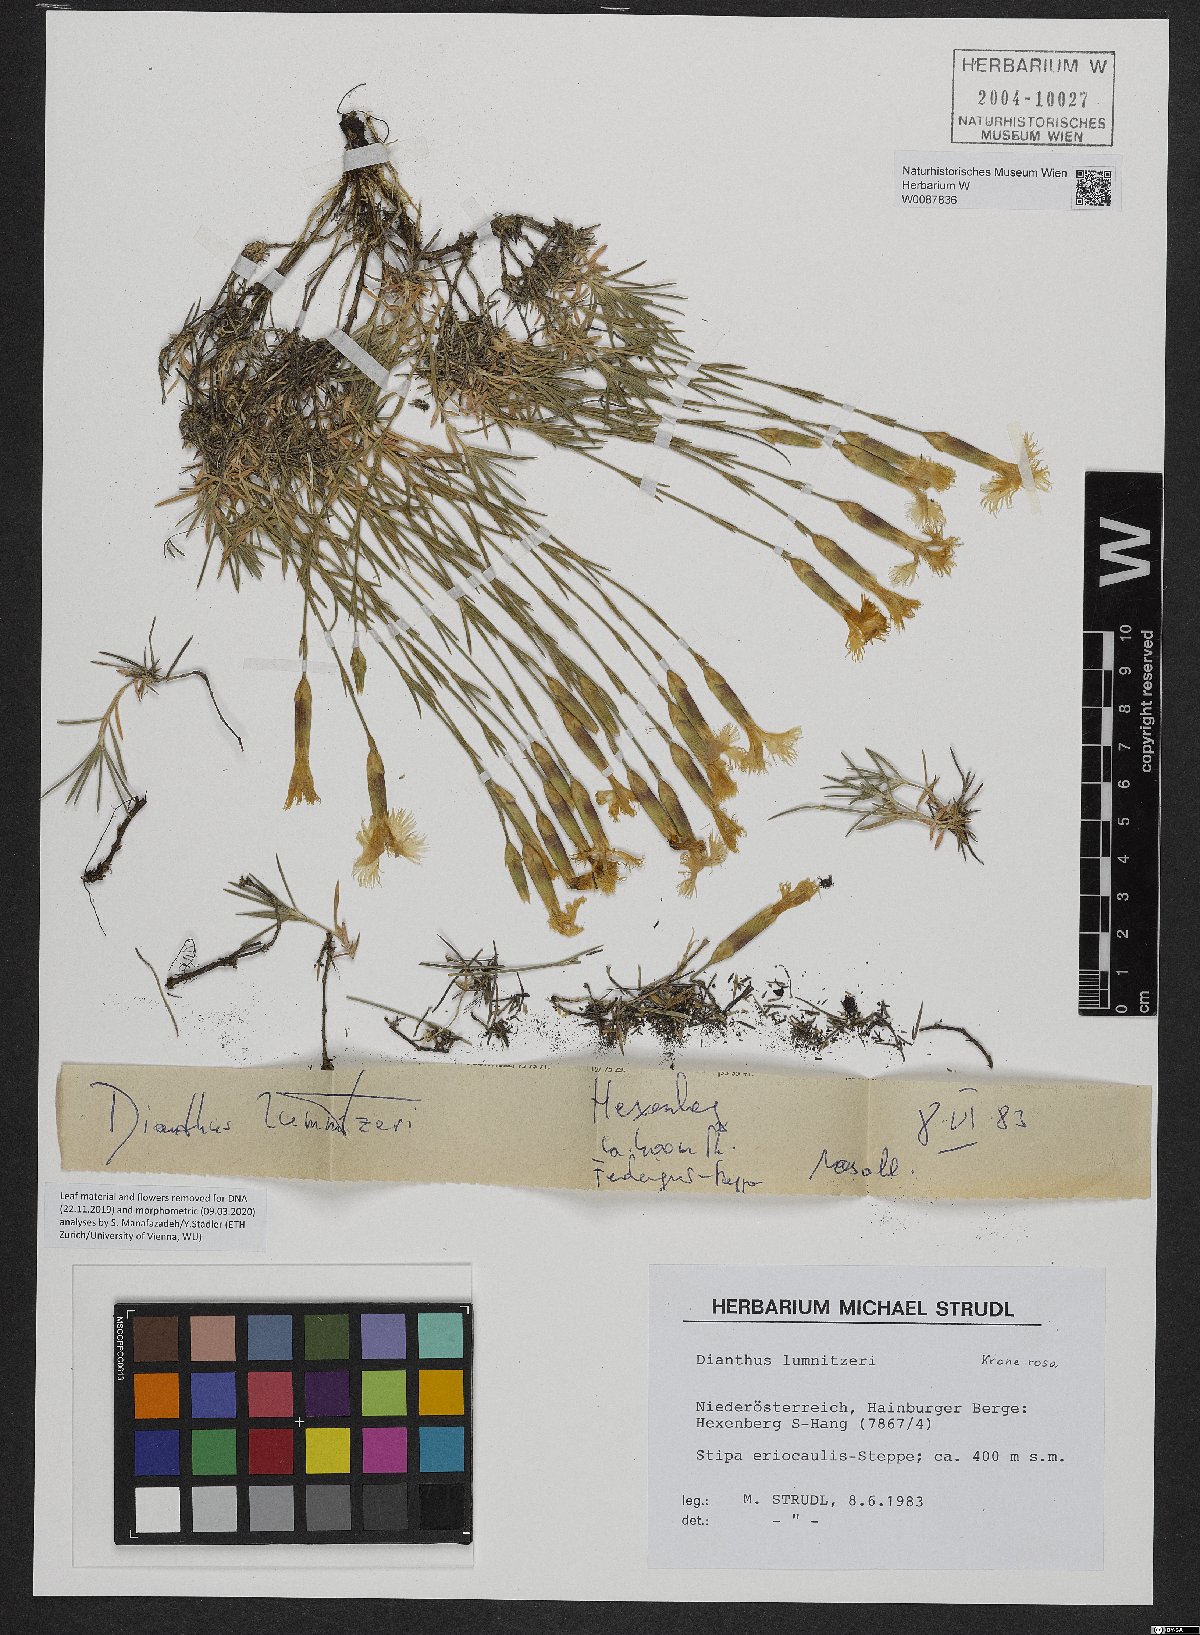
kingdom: Plantae
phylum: Tracheophyta
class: Magnoliopsida
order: Caryophyllales
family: Caryophyllaceae
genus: Dianthus
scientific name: Dianthus praecox
